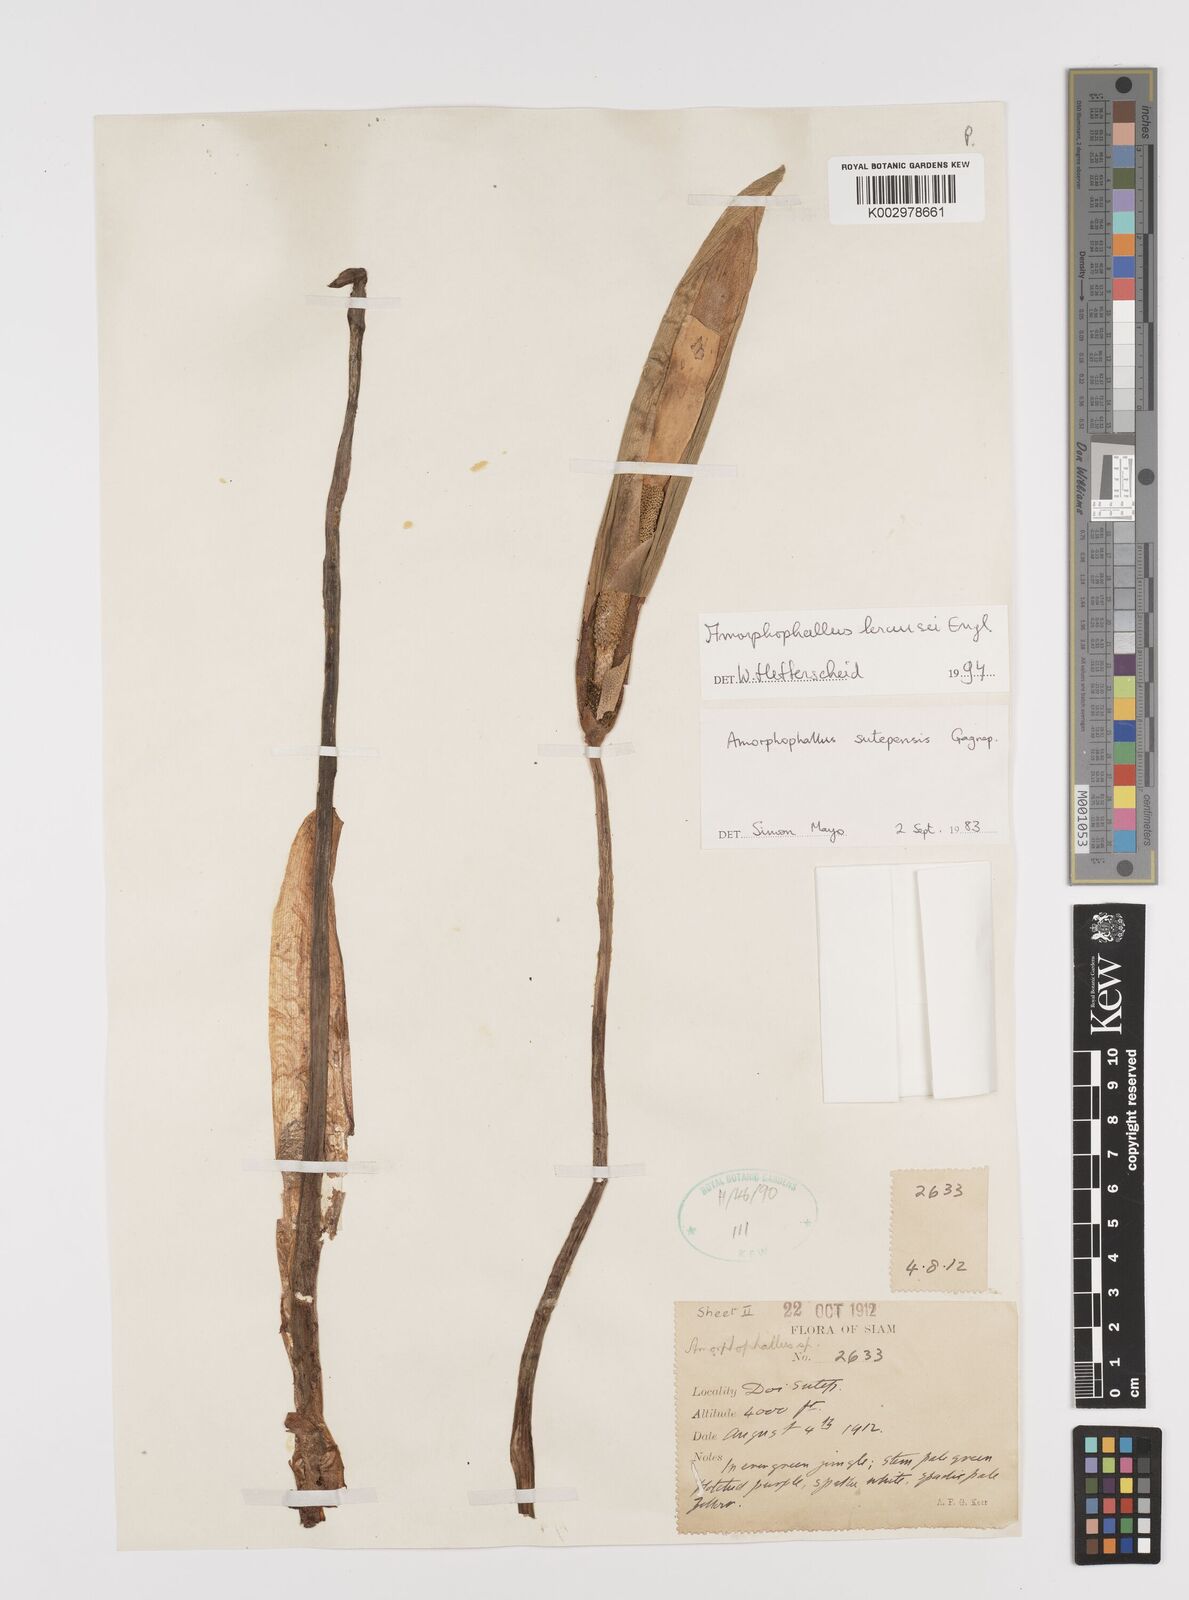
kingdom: Plantae
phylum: Tracheophyta
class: Liliopsida
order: Alismatales
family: Araceae
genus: Amorphophallus
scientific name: Amorphophallus krausei
